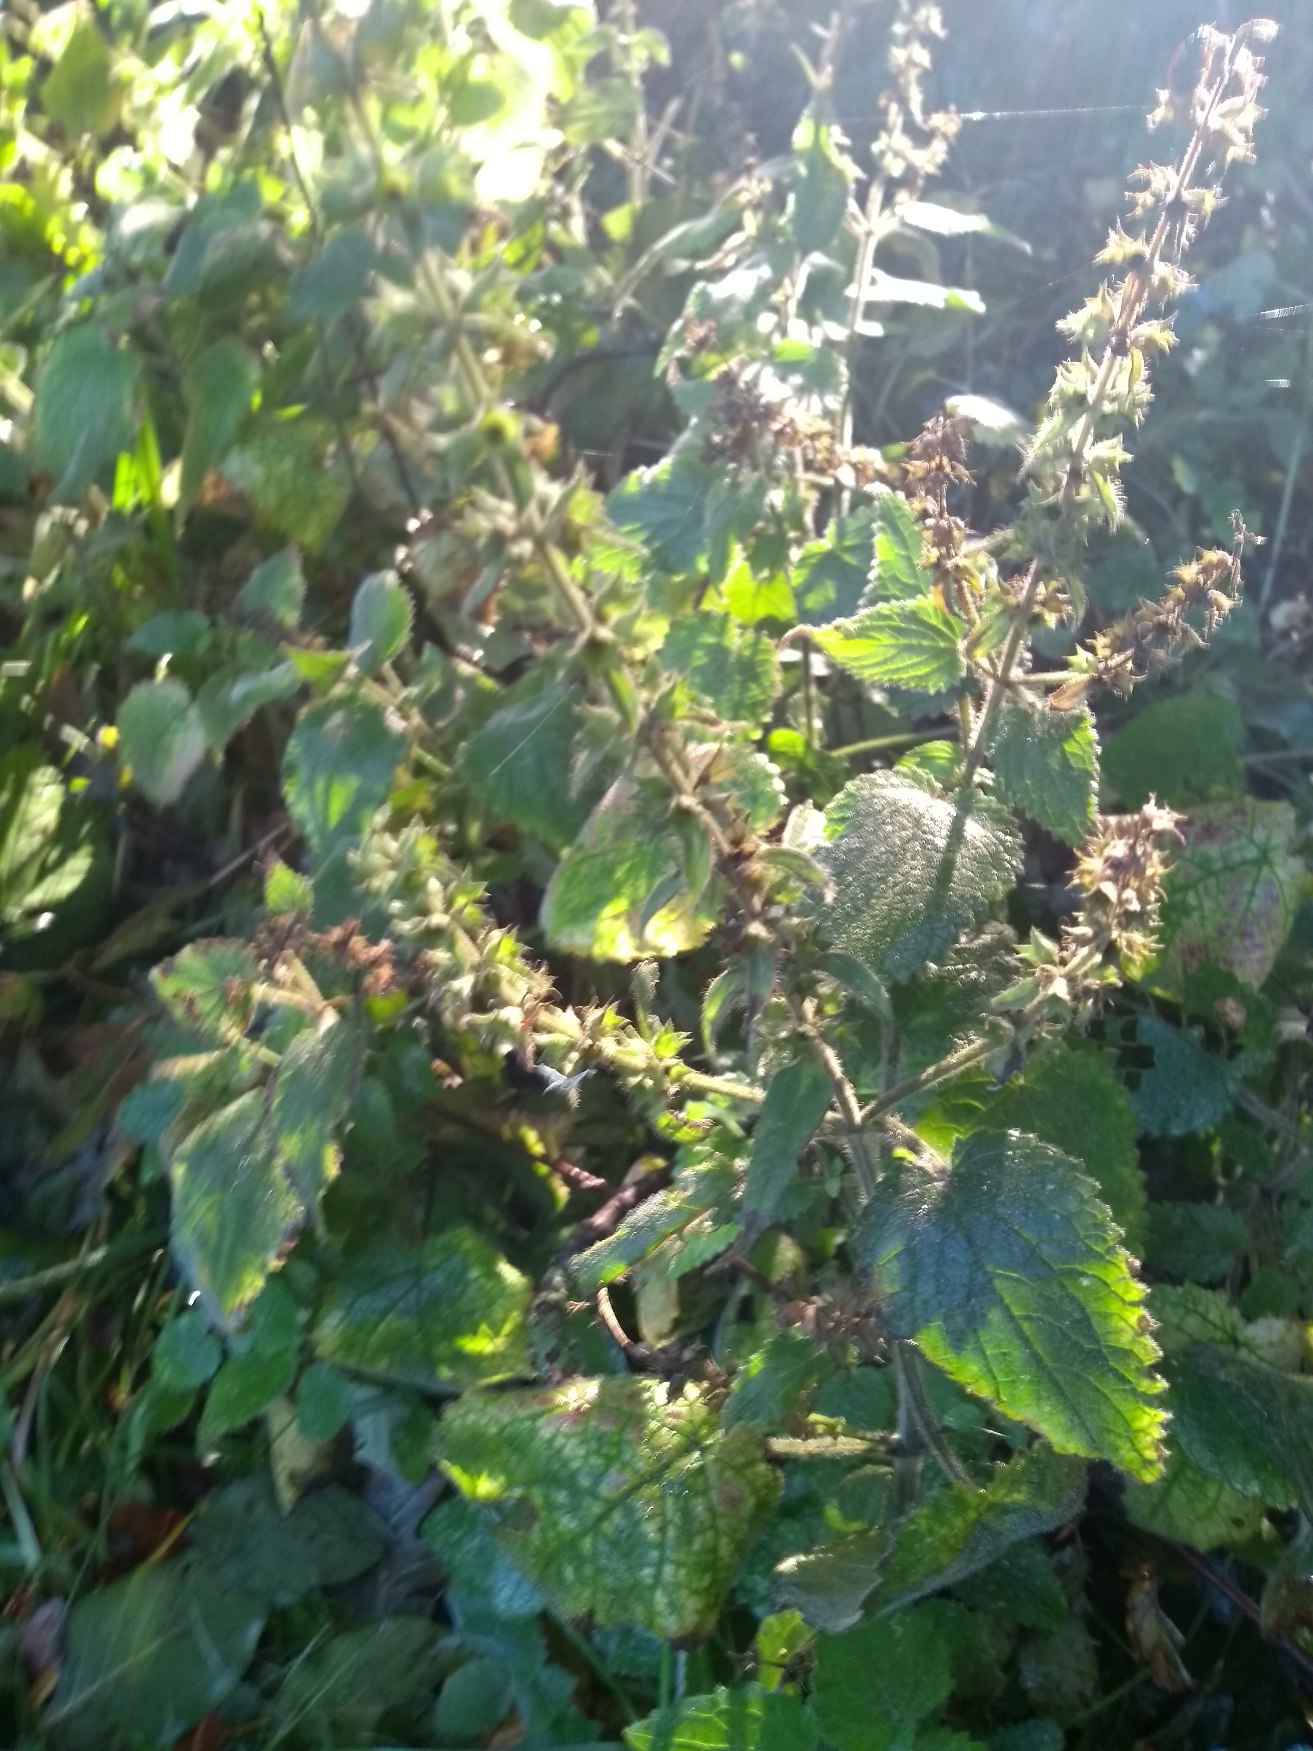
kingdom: Plantae
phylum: Tracheophyta
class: Magnoliopsida
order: Lamiales
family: Lamiaceae
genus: Stachys
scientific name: Stachys sylvatica
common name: Skov-galtetand
